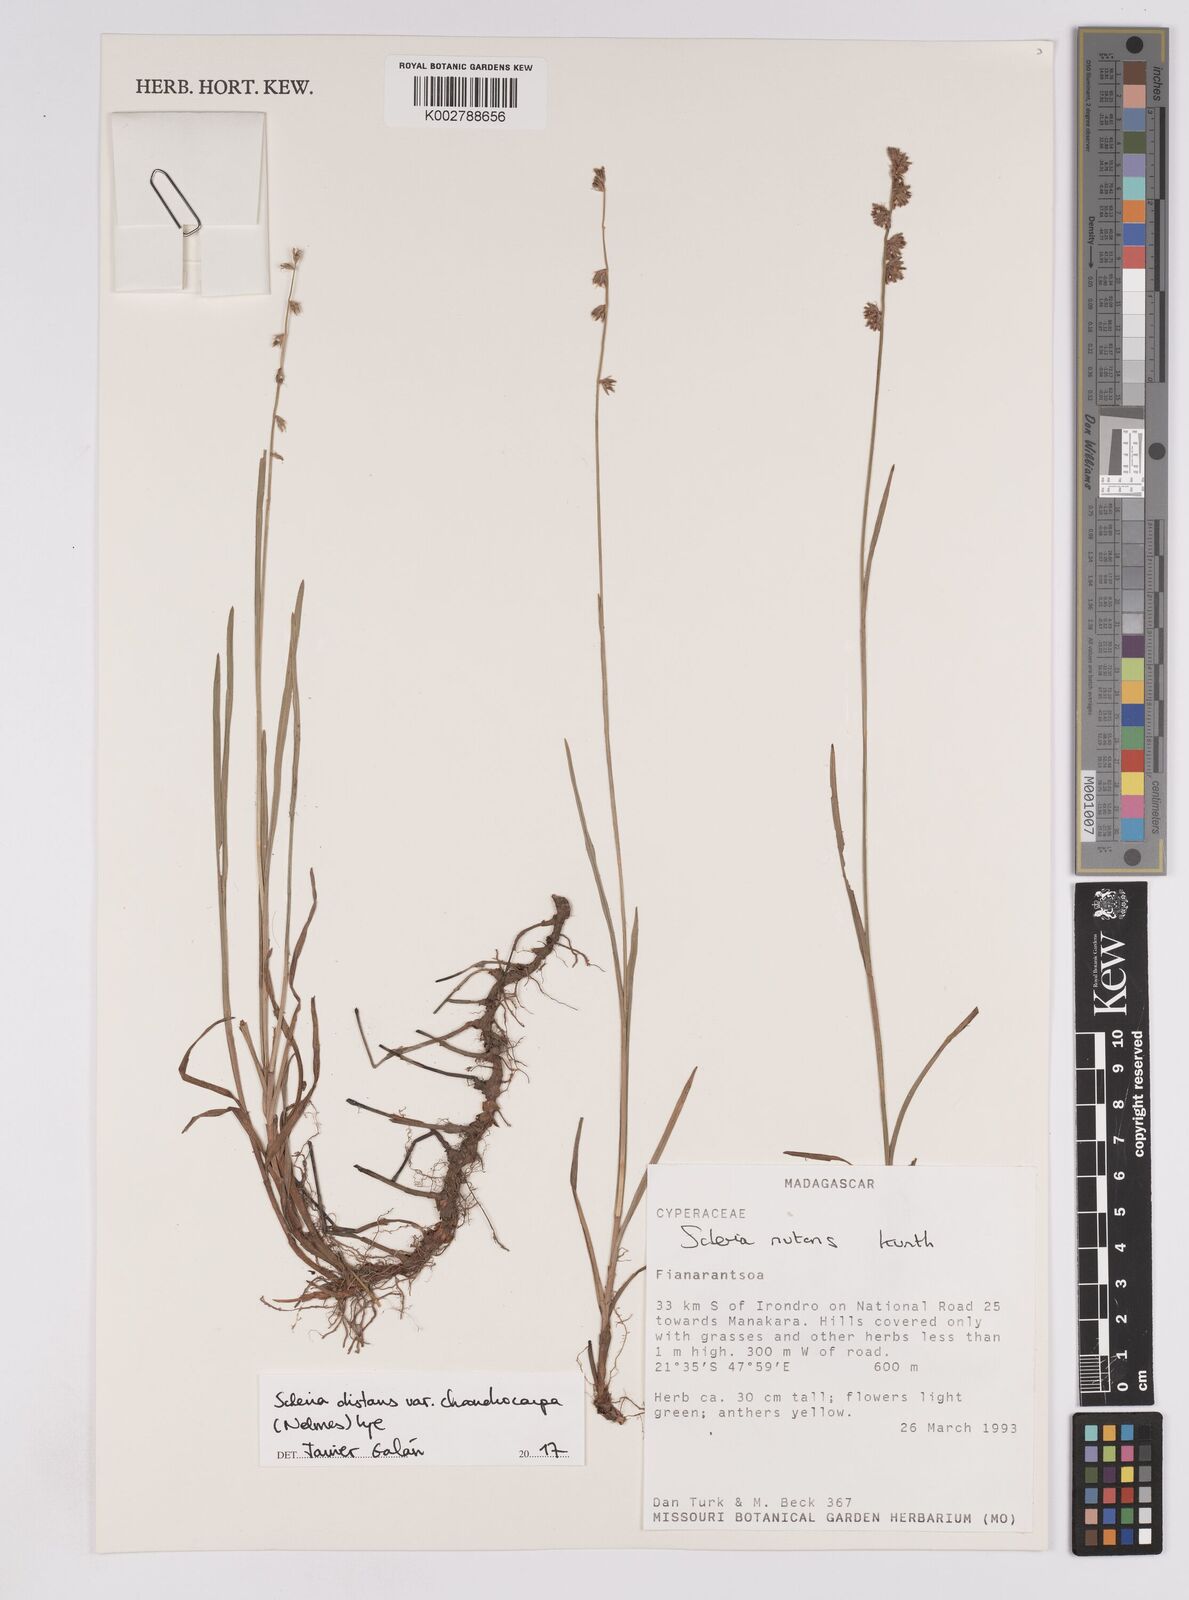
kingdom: Plantae
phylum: Tracheophyta
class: Liliopsida
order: Poales
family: Cyperaceae
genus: Scleria
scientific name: Scleria distans
